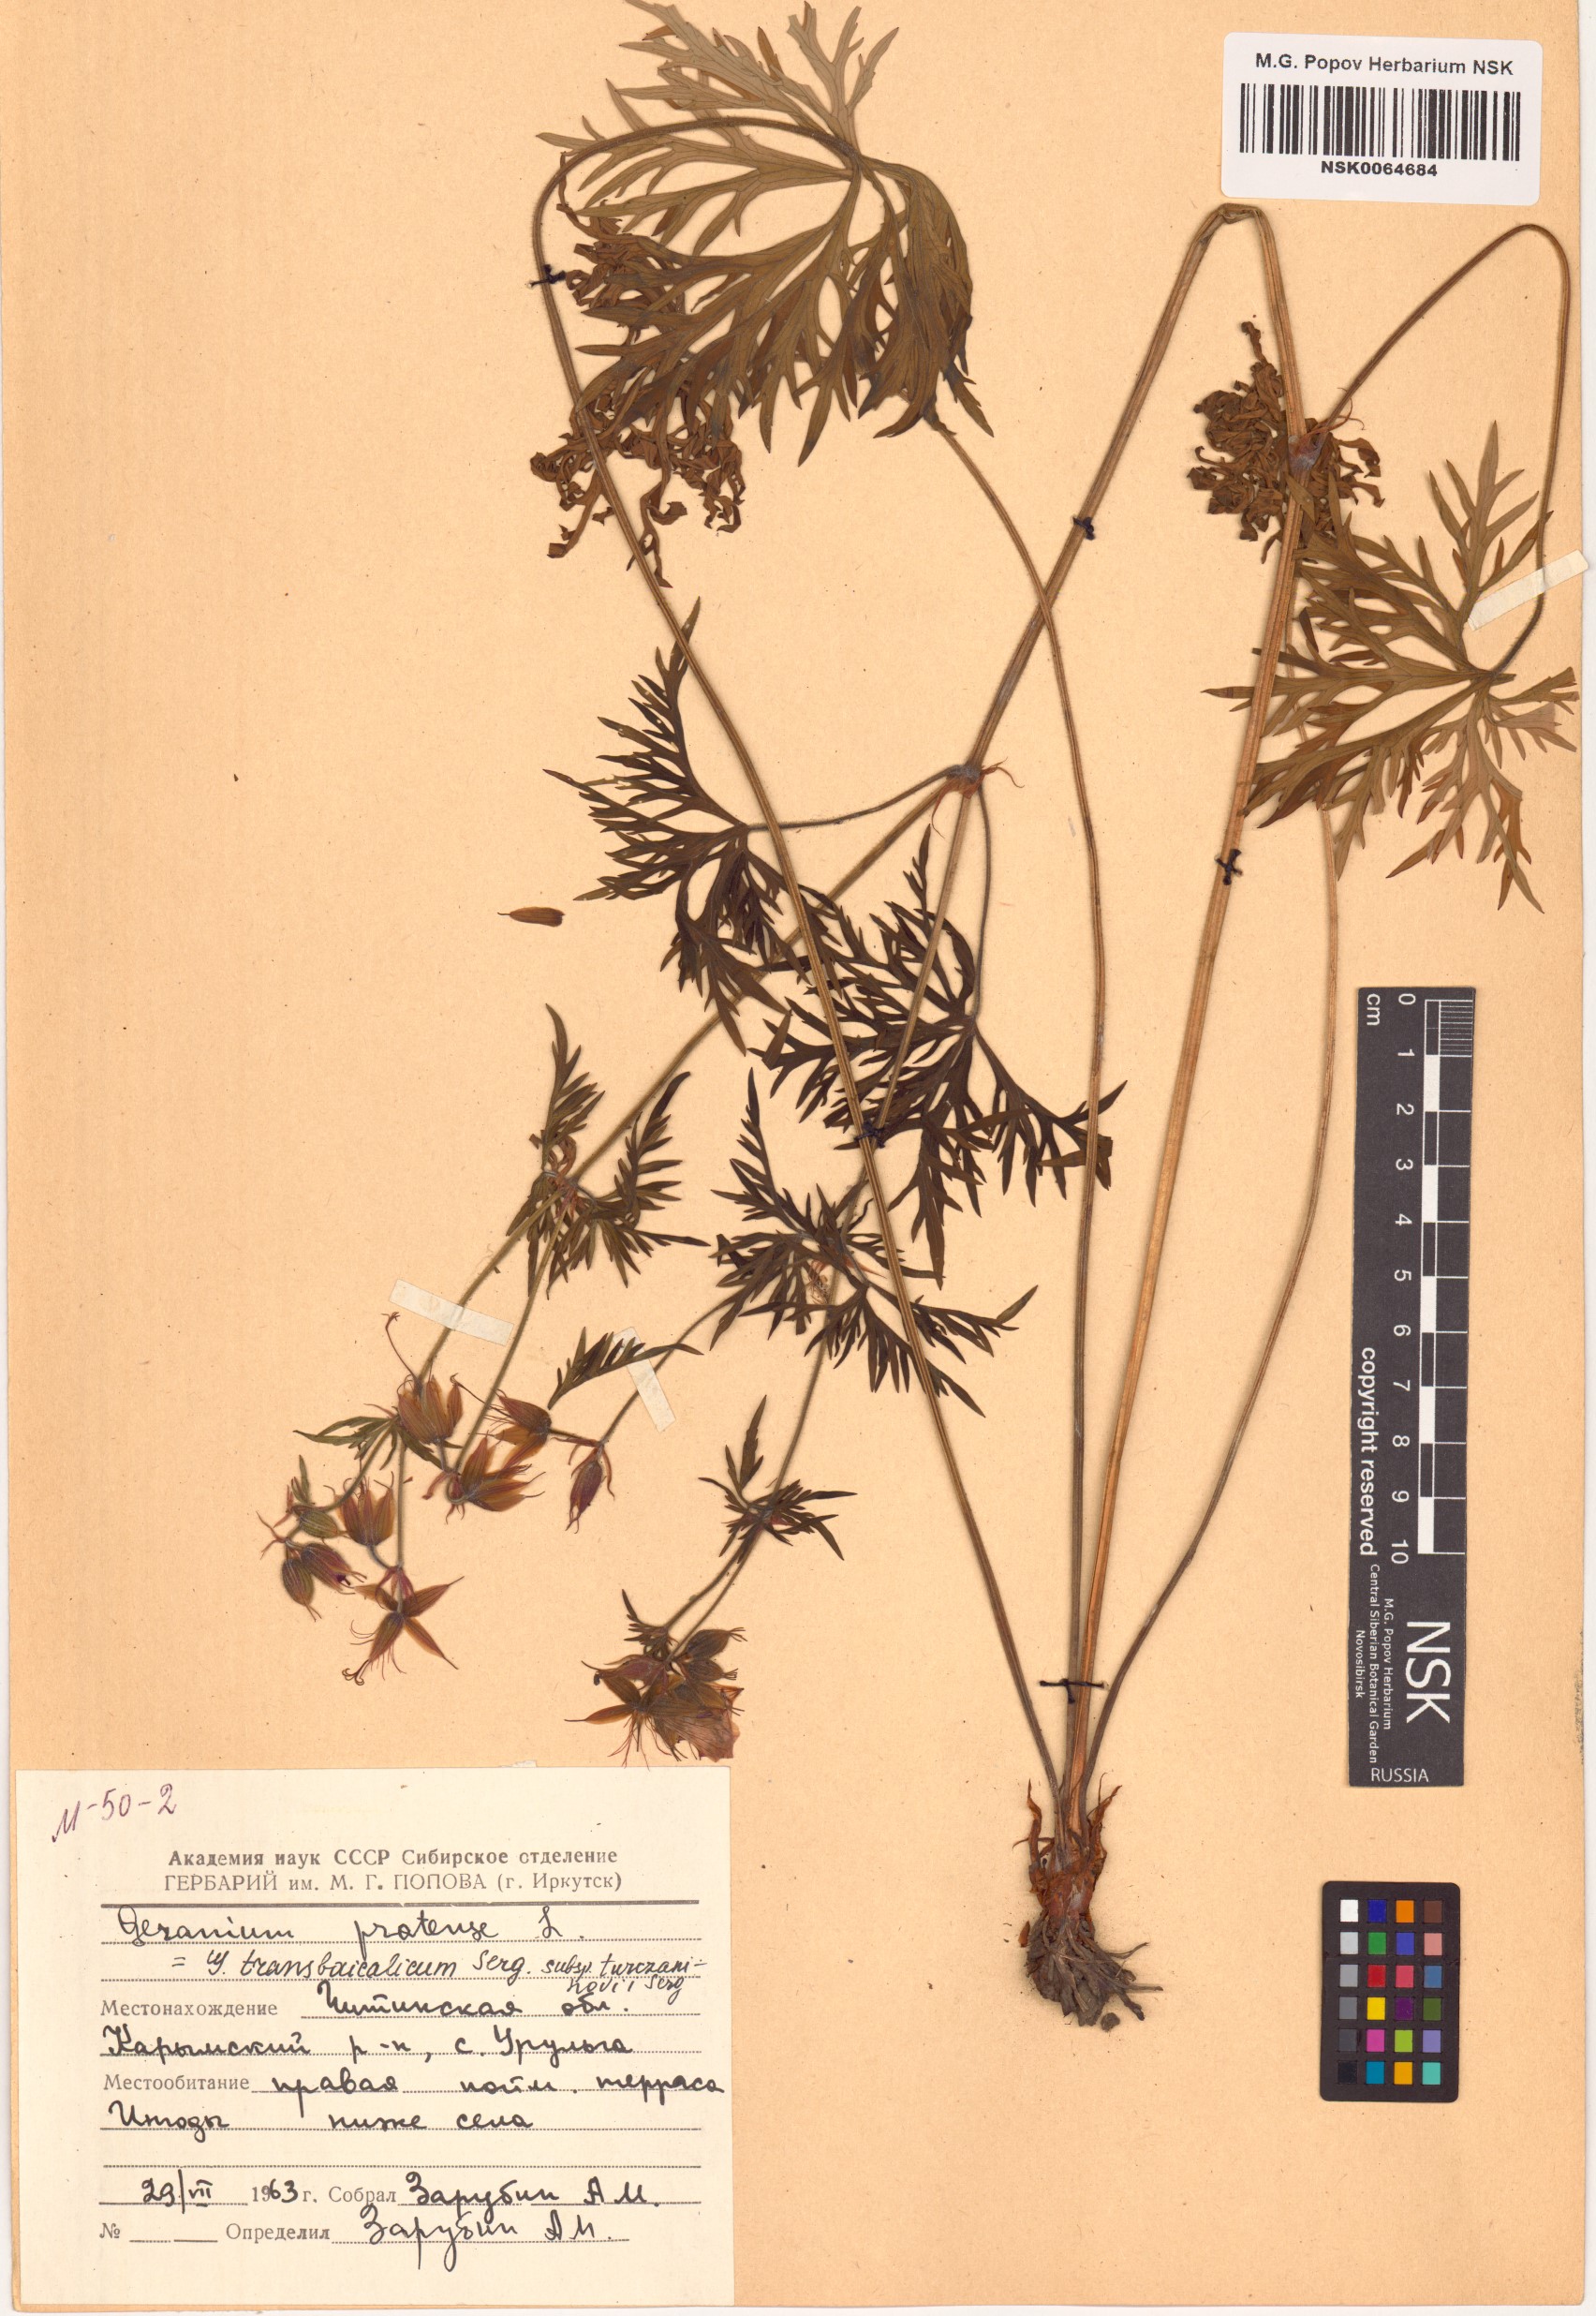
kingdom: Plantae
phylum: Tracheophyta
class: Magnoliopsida
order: Geraniales
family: Geraniaceae
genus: Geranium
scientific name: Geranium pratense
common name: Meadow crane's-bill
